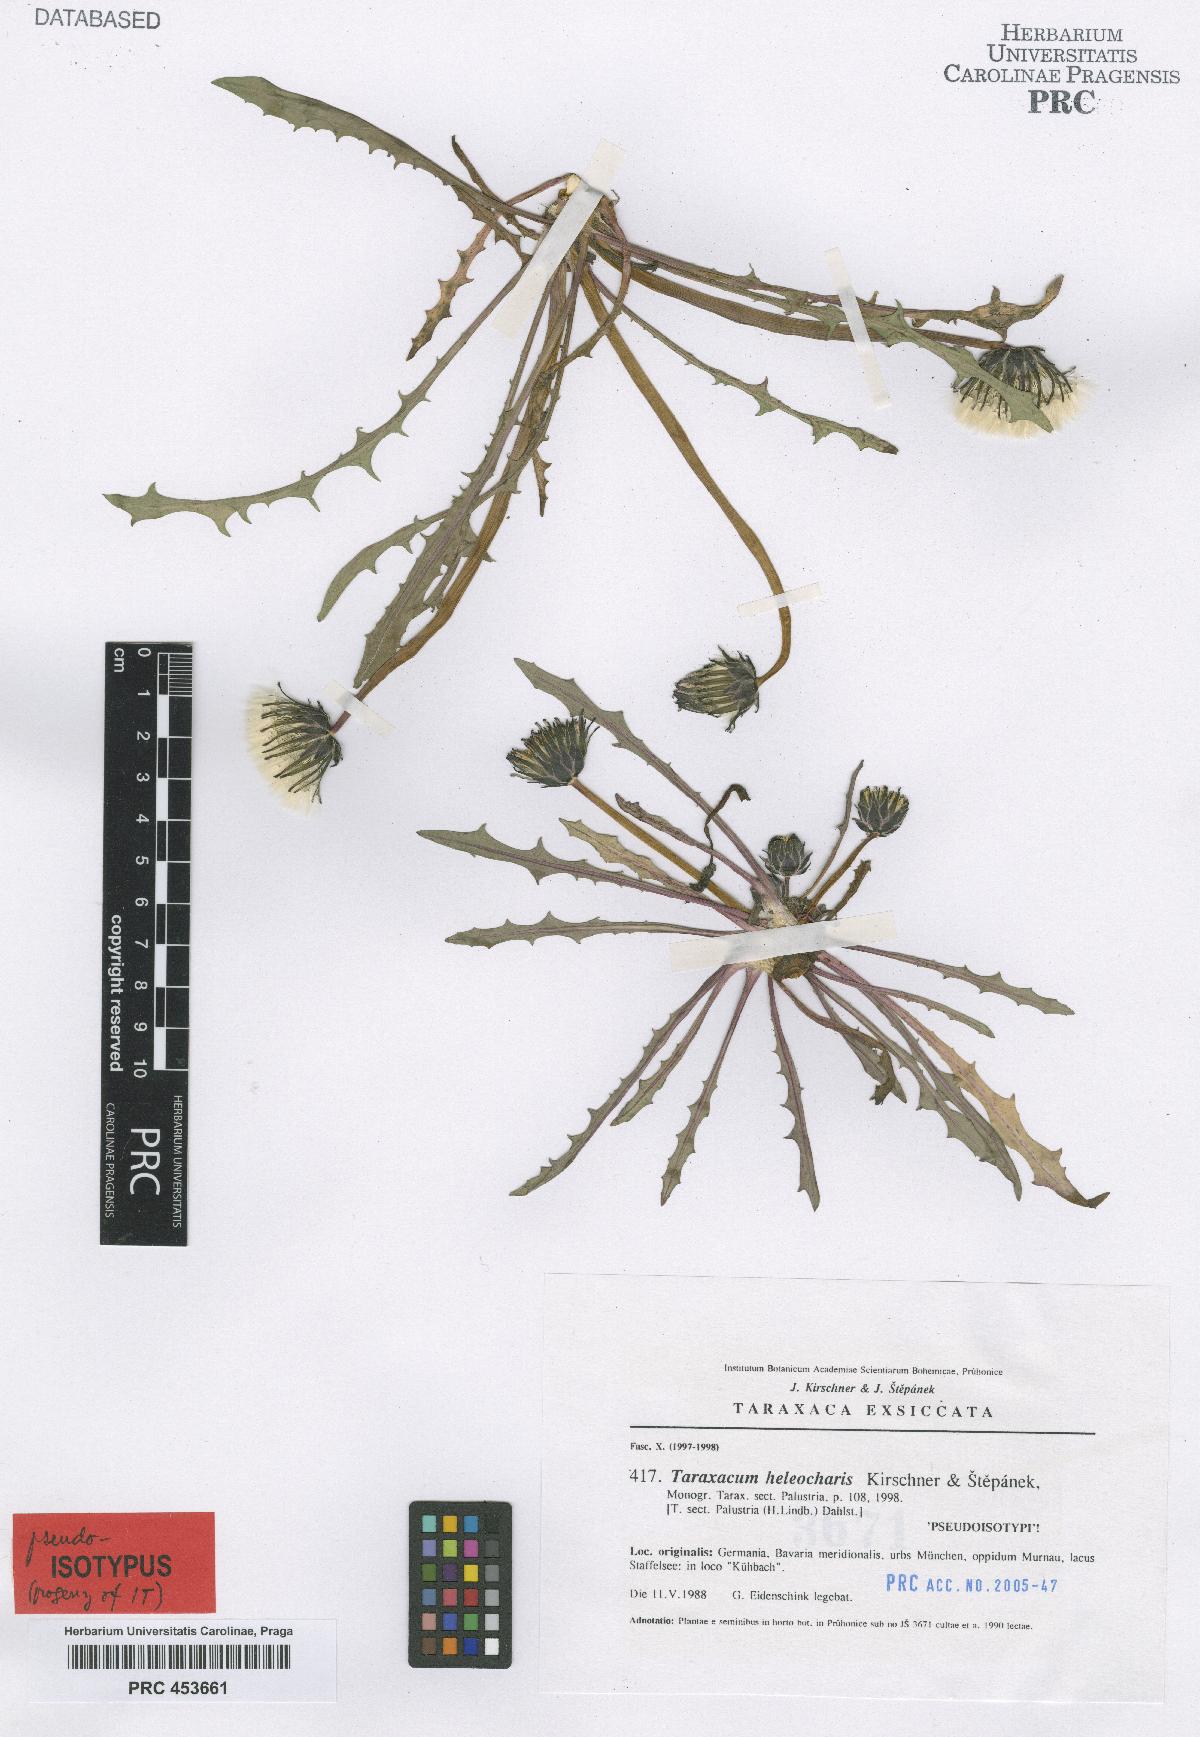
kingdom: Plantae
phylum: Tracheophyta
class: Magnoliopsida
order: Asterales
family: Asteraceae
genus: Taraxacum
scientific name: Taraxacum heleocharis
